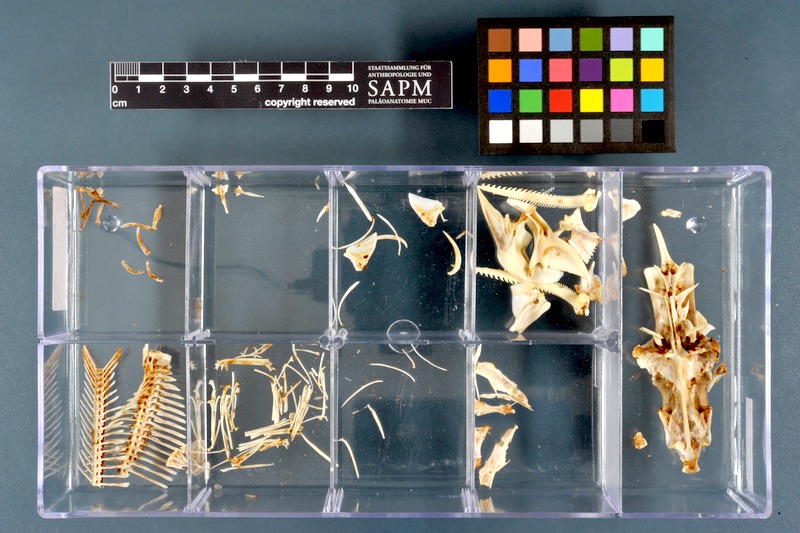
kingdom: Animalia
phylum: Chordata
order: Siluriformes
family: Mochokidae
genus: Synodontis
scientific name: Synodontis serratus
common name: Shield-head catfish
